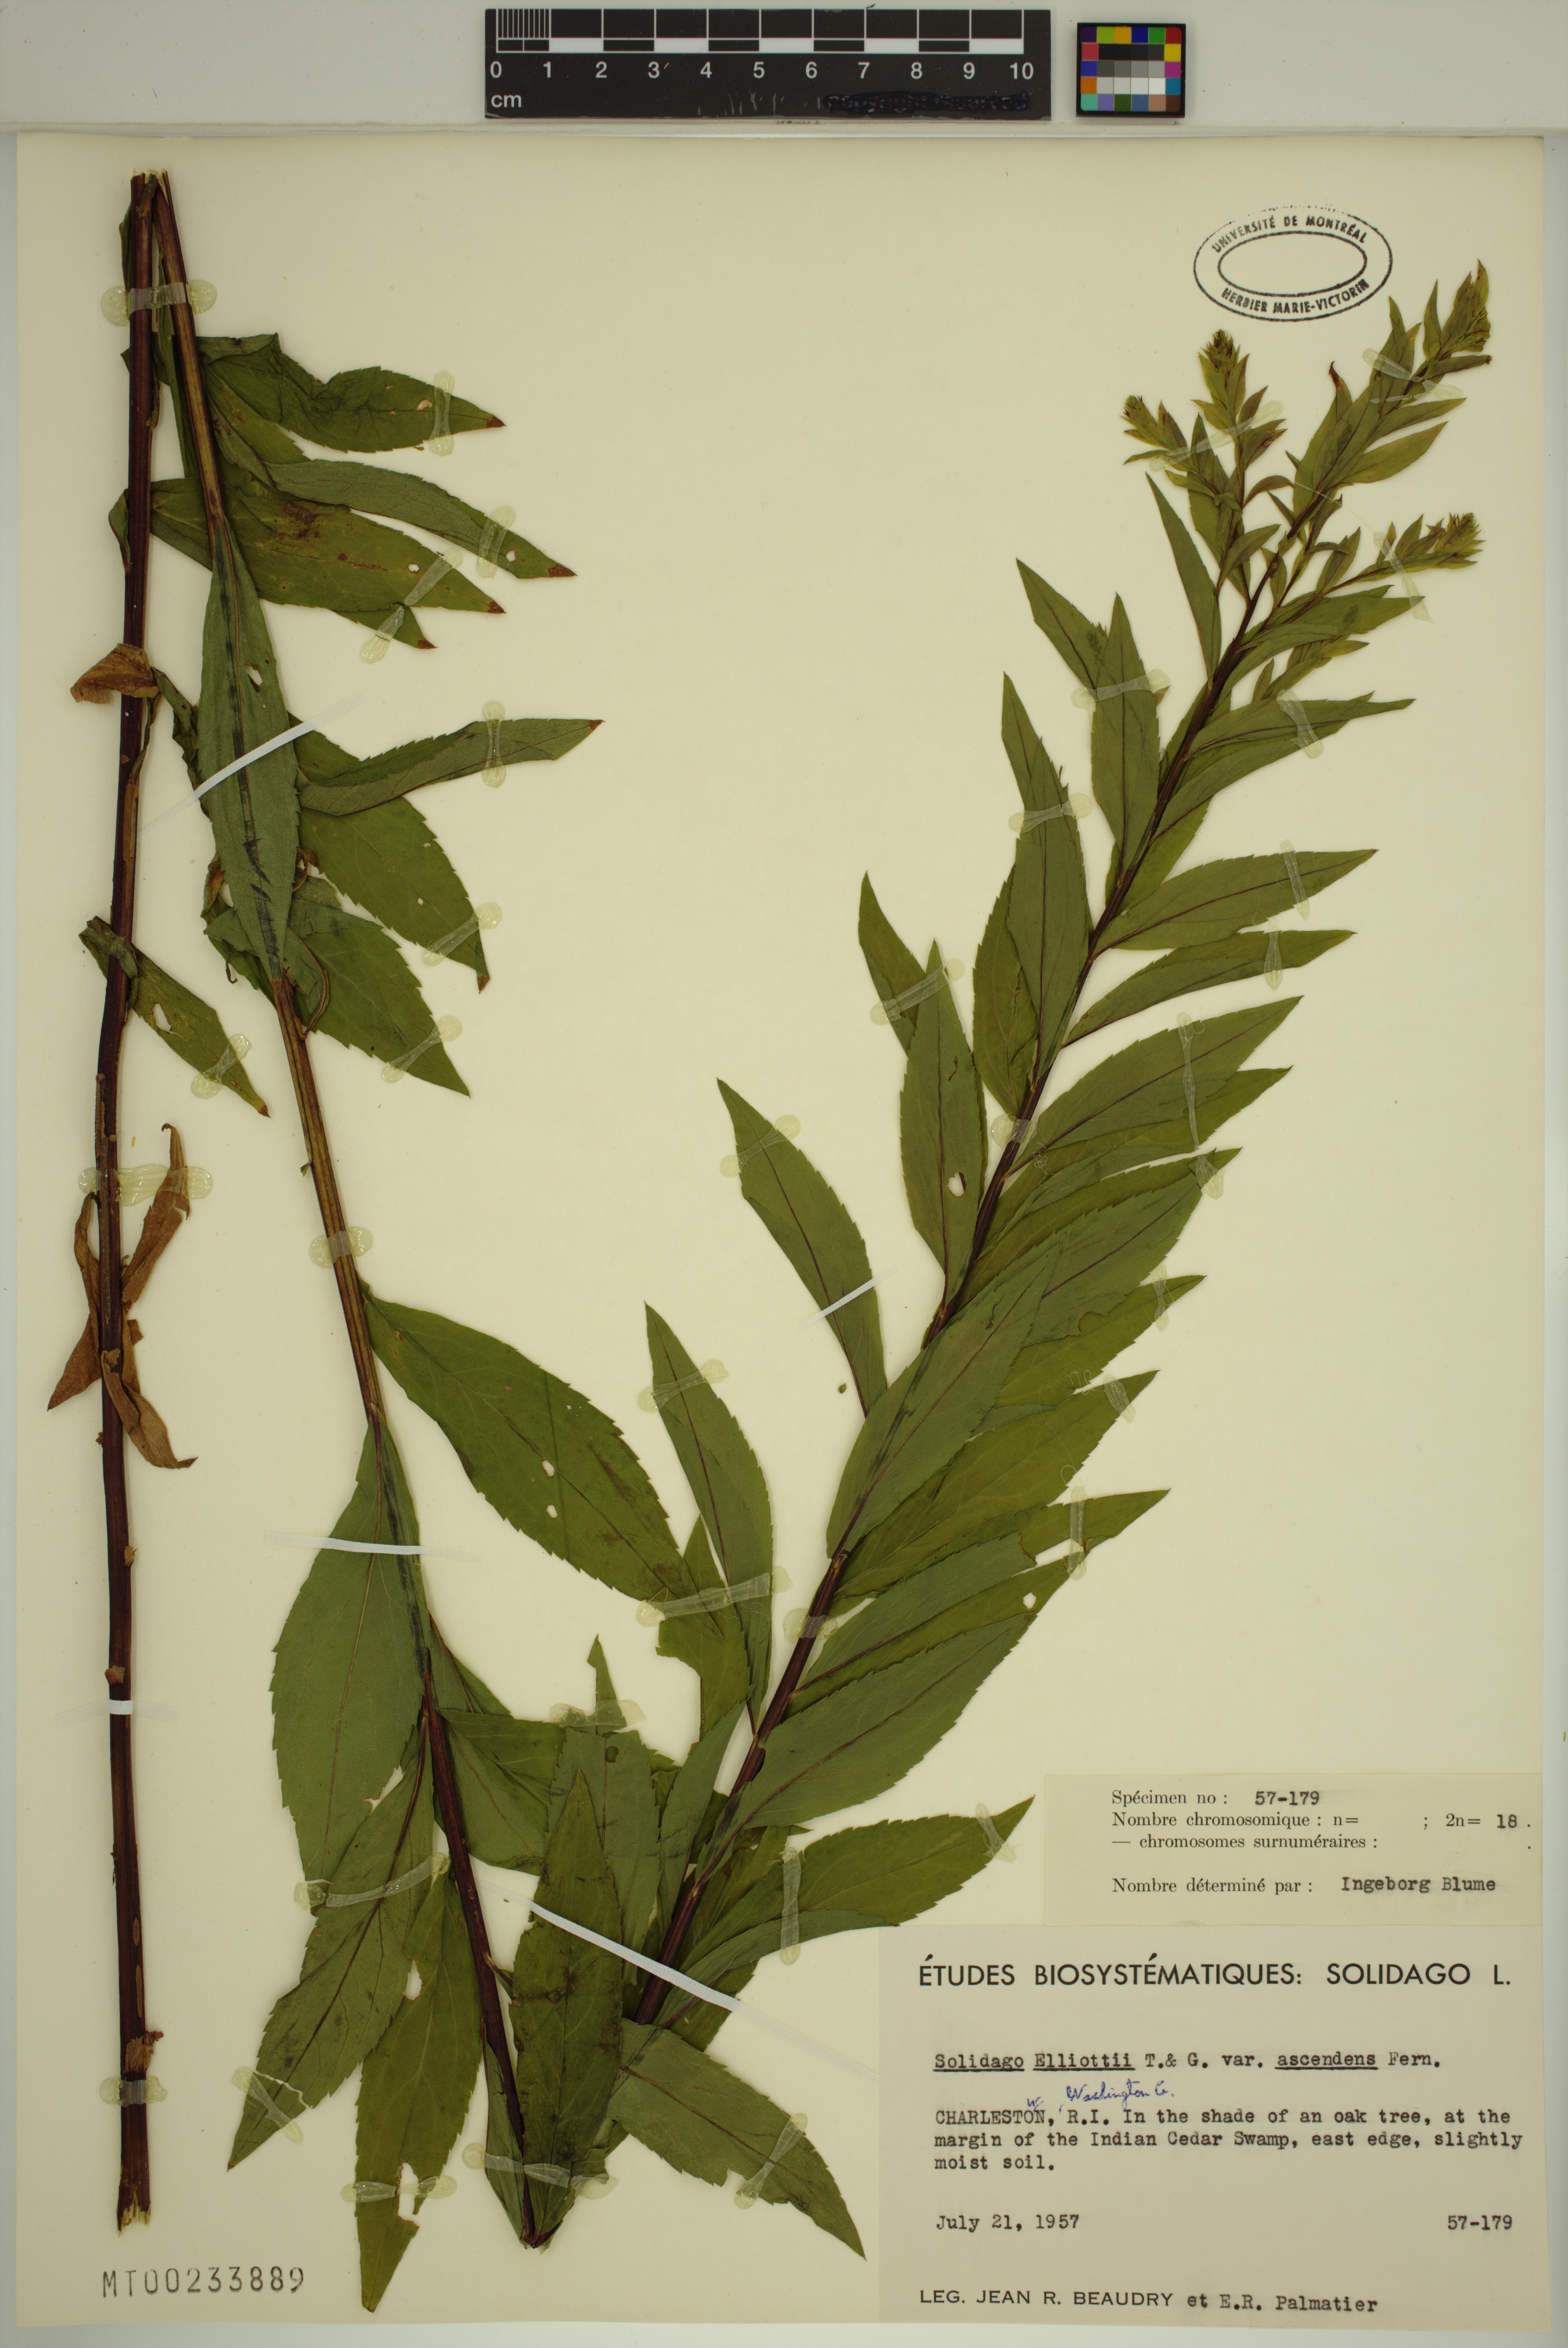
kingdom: Plantae
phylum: Tracheophyta
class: Magnoliopsida
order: Asterales
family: Asteraceae
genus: Solidago
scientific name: Solidago latissimifolia
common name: Elliott's goldenrod
